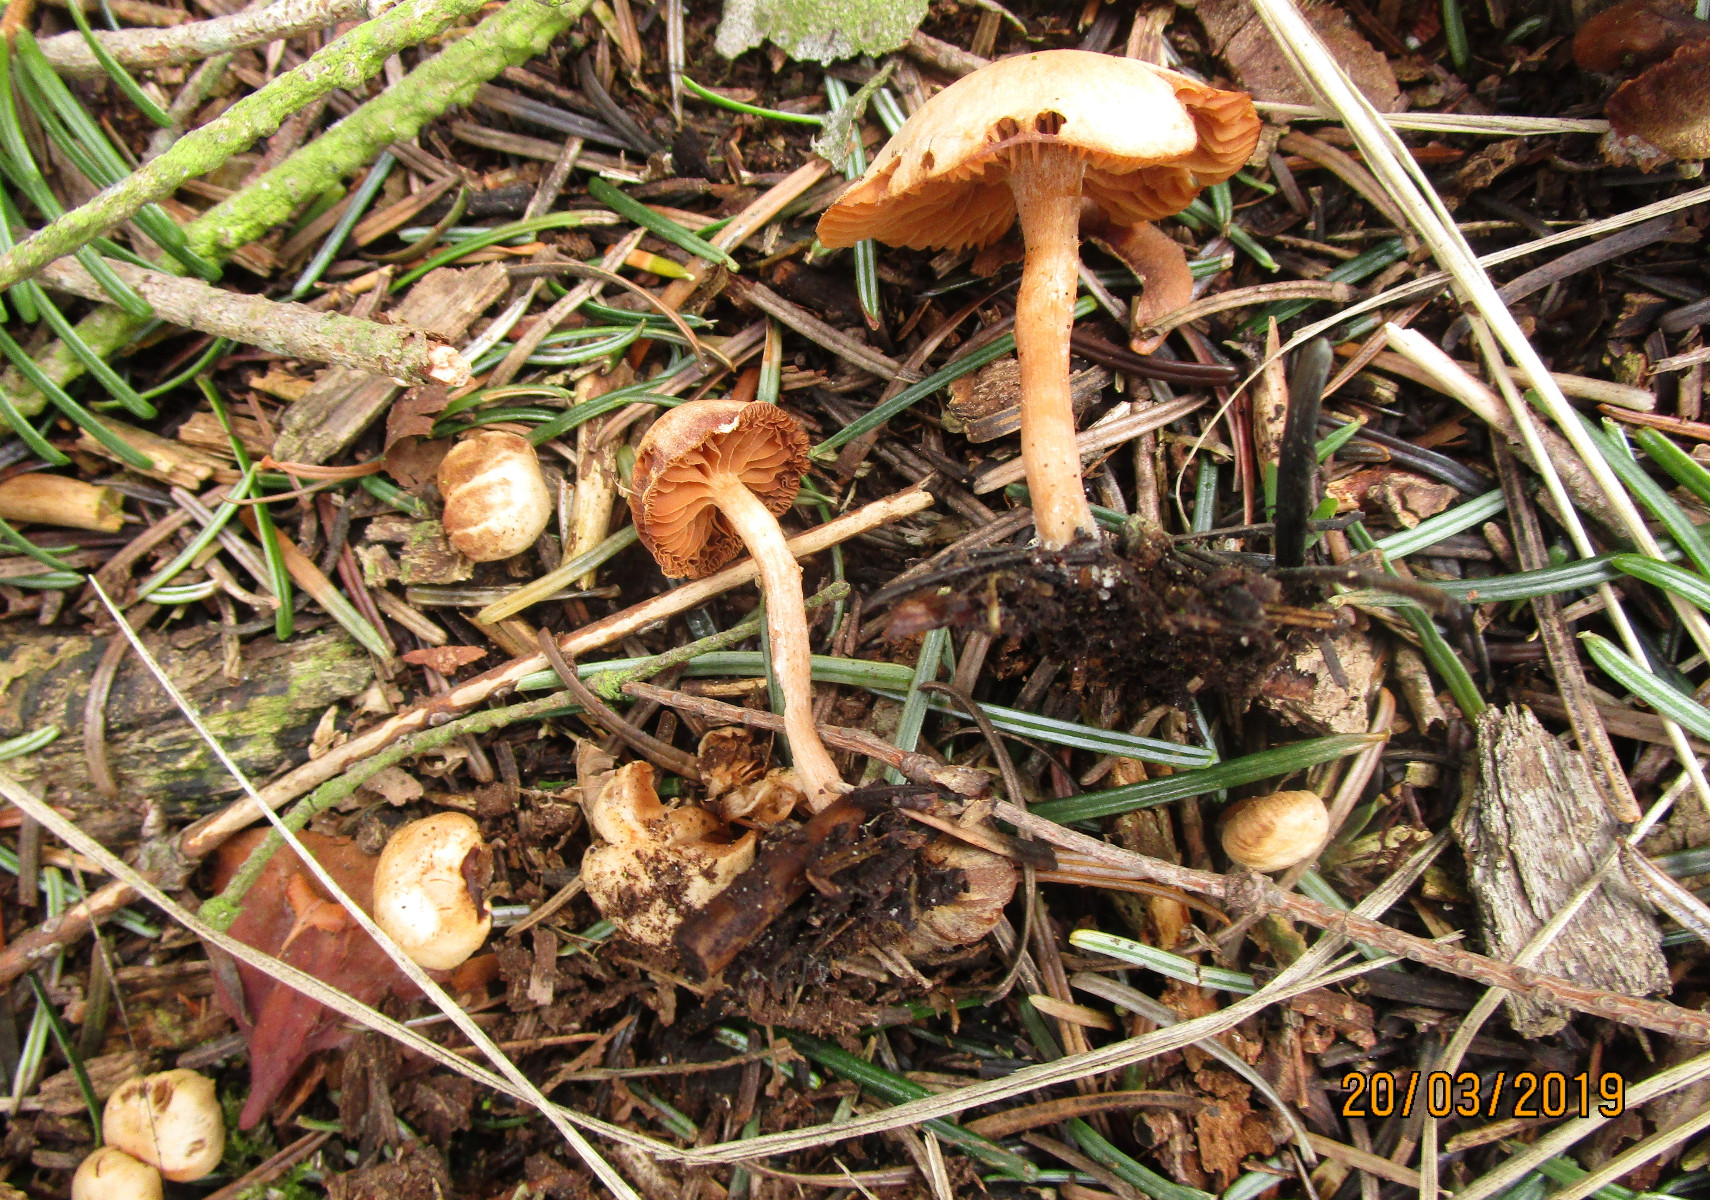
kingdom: Fungi
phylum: Basidiomycota
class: Agaricomycetes
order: Agaricales
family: Tubariaceae
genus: Tubaria
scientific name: Tubaria furfuracea
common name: kliddet fnughat
